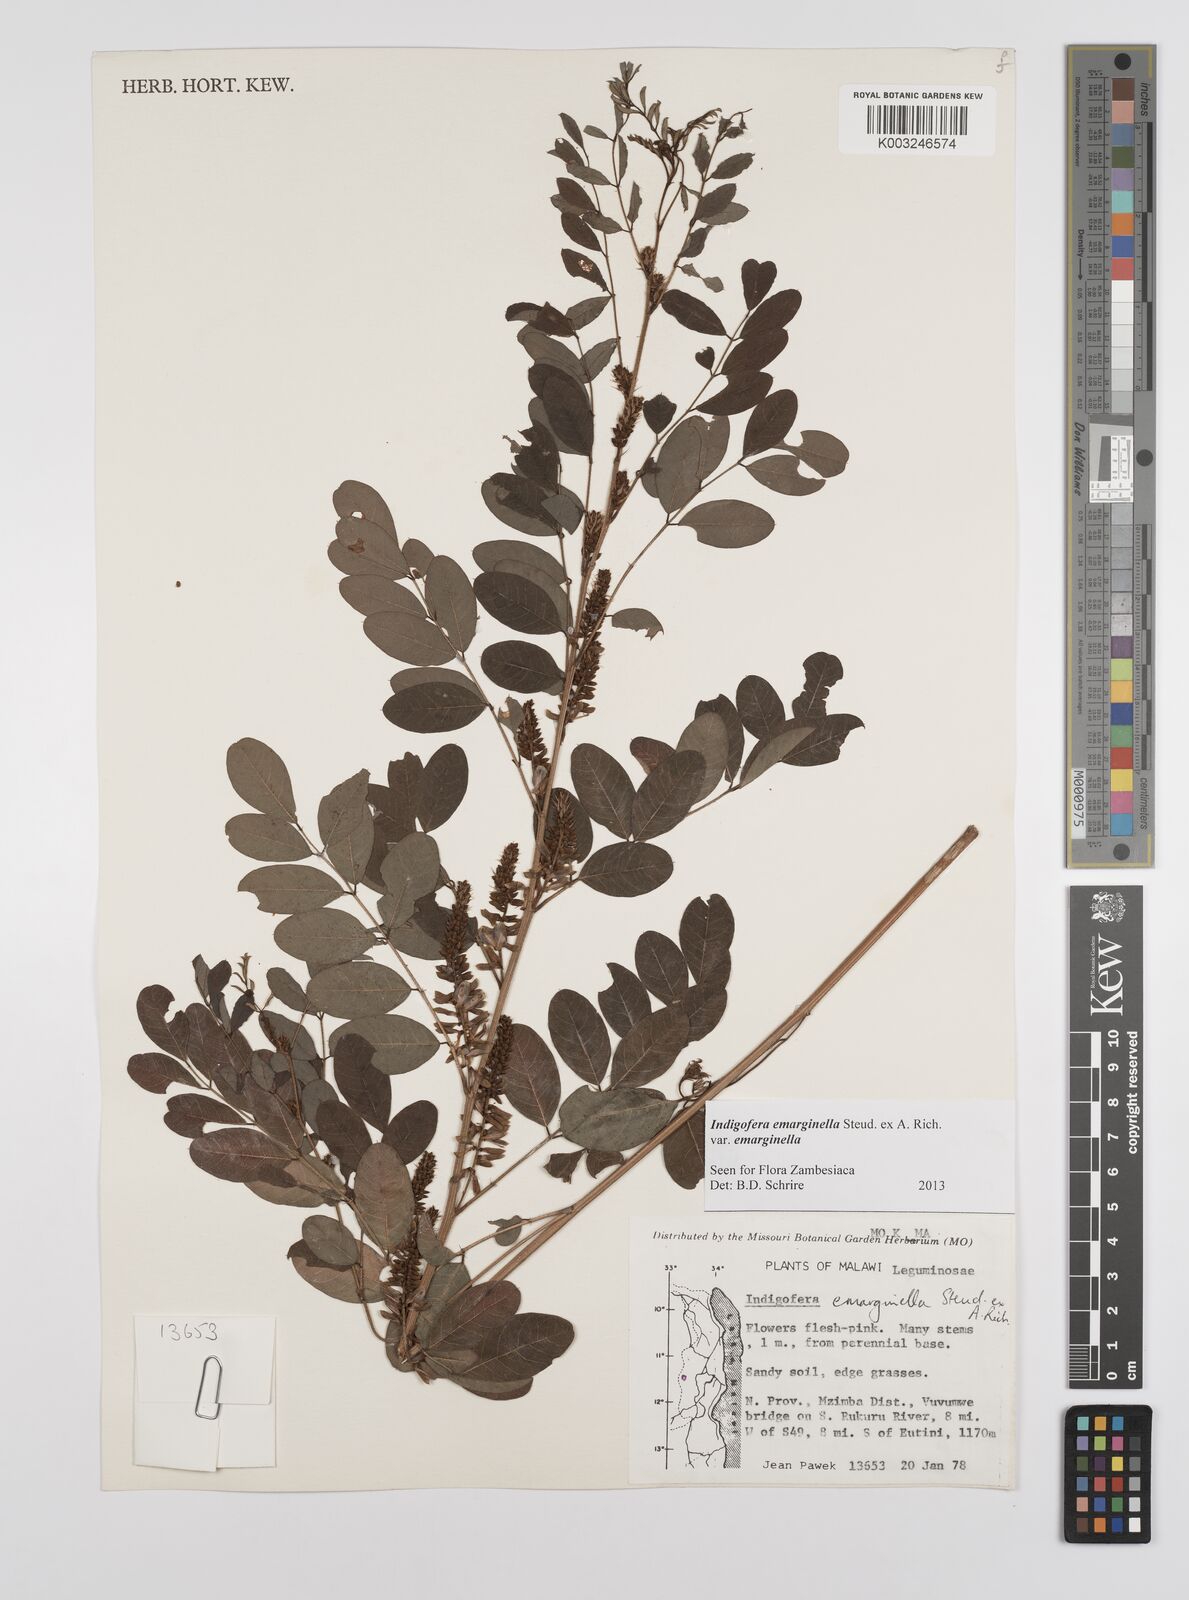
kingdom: Plantae
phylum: Tracheophyta
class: Magnoliopsida
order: Fabales
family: Fabaceae
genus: Indigofera
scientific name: Indigofera emarginella
